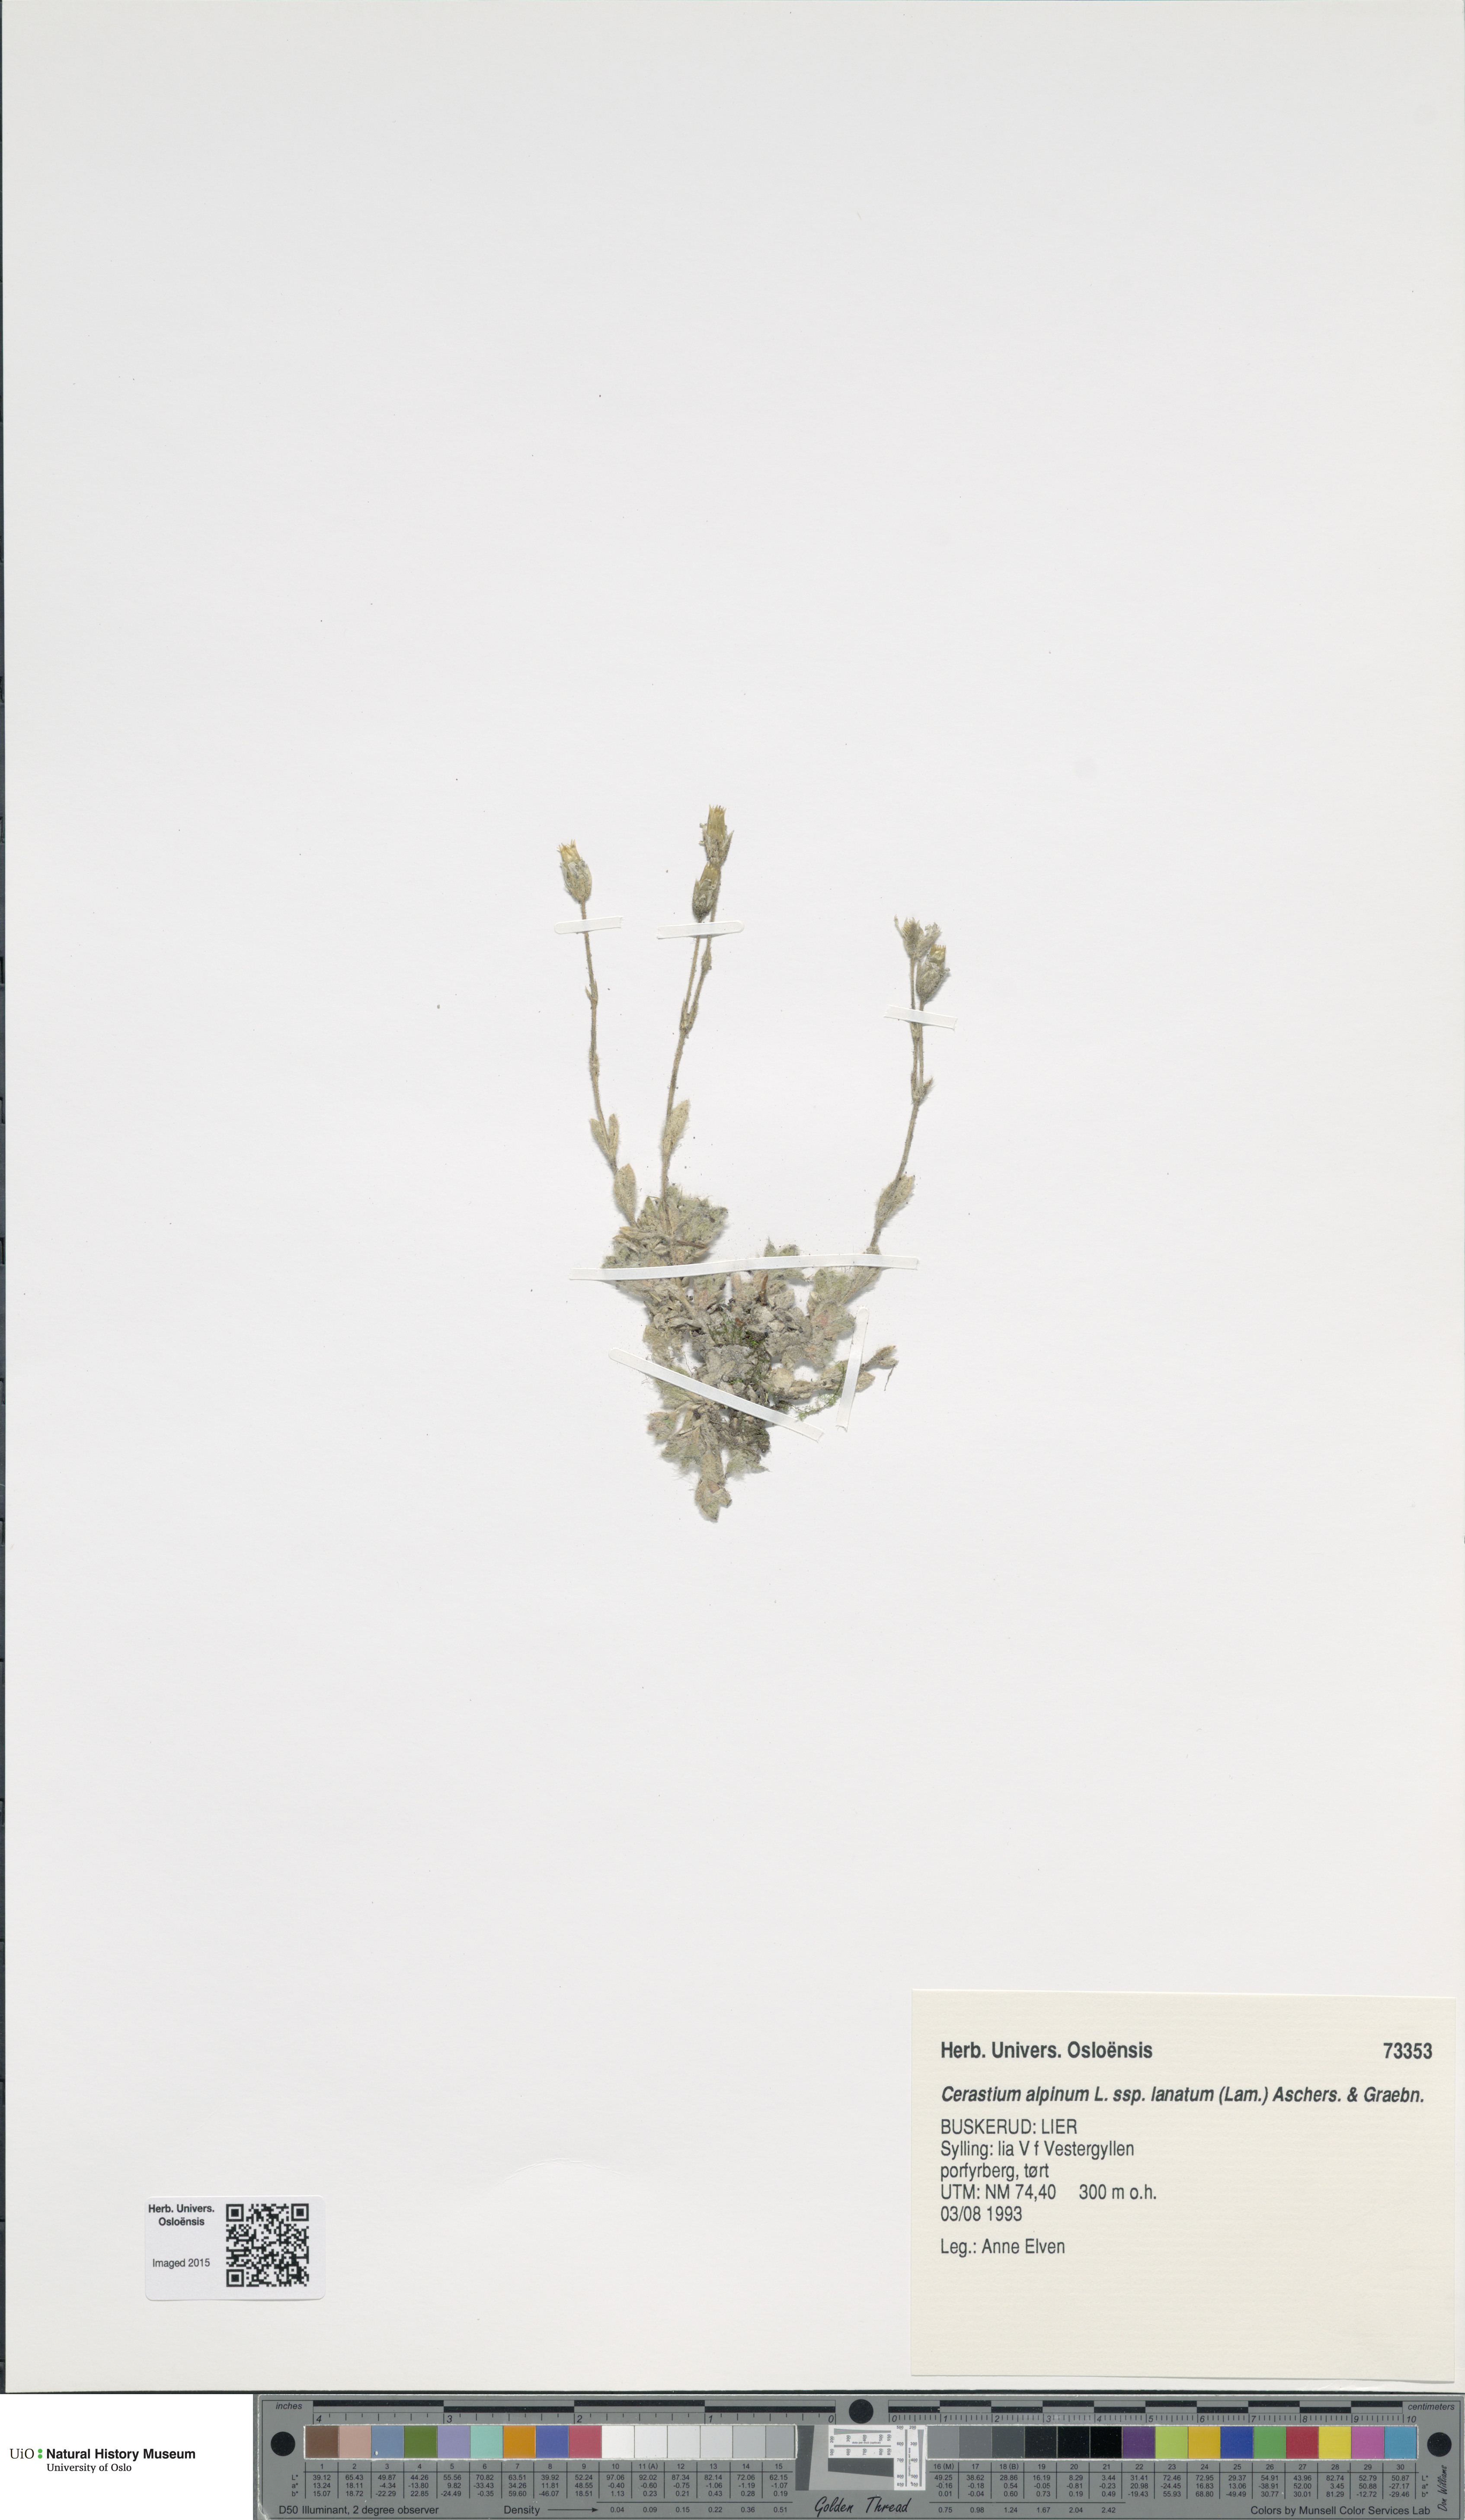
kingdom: Plantae
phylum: Tracheophyta
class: Magnoliopsida
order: Caryophyllales
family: Caryophyllaceae
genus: Cerastium
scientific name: Cerastium alpinum
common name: Alpine mouse-ear
